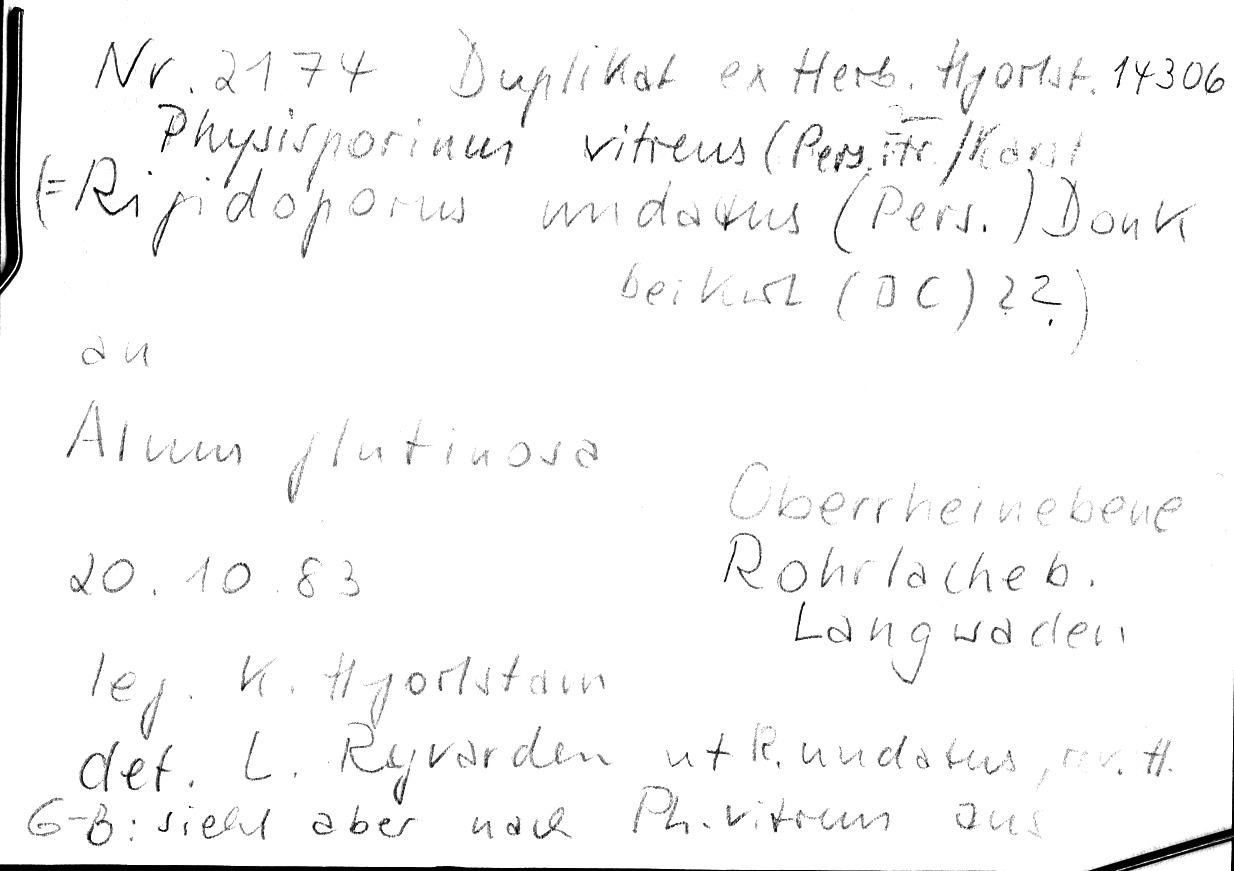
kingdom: Plantae
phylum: Tracheophyta
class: Magnoliopsida
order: Fagales
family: Betulaceae
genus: Alnus
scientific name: Alnus glutinosa
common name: Black alder
